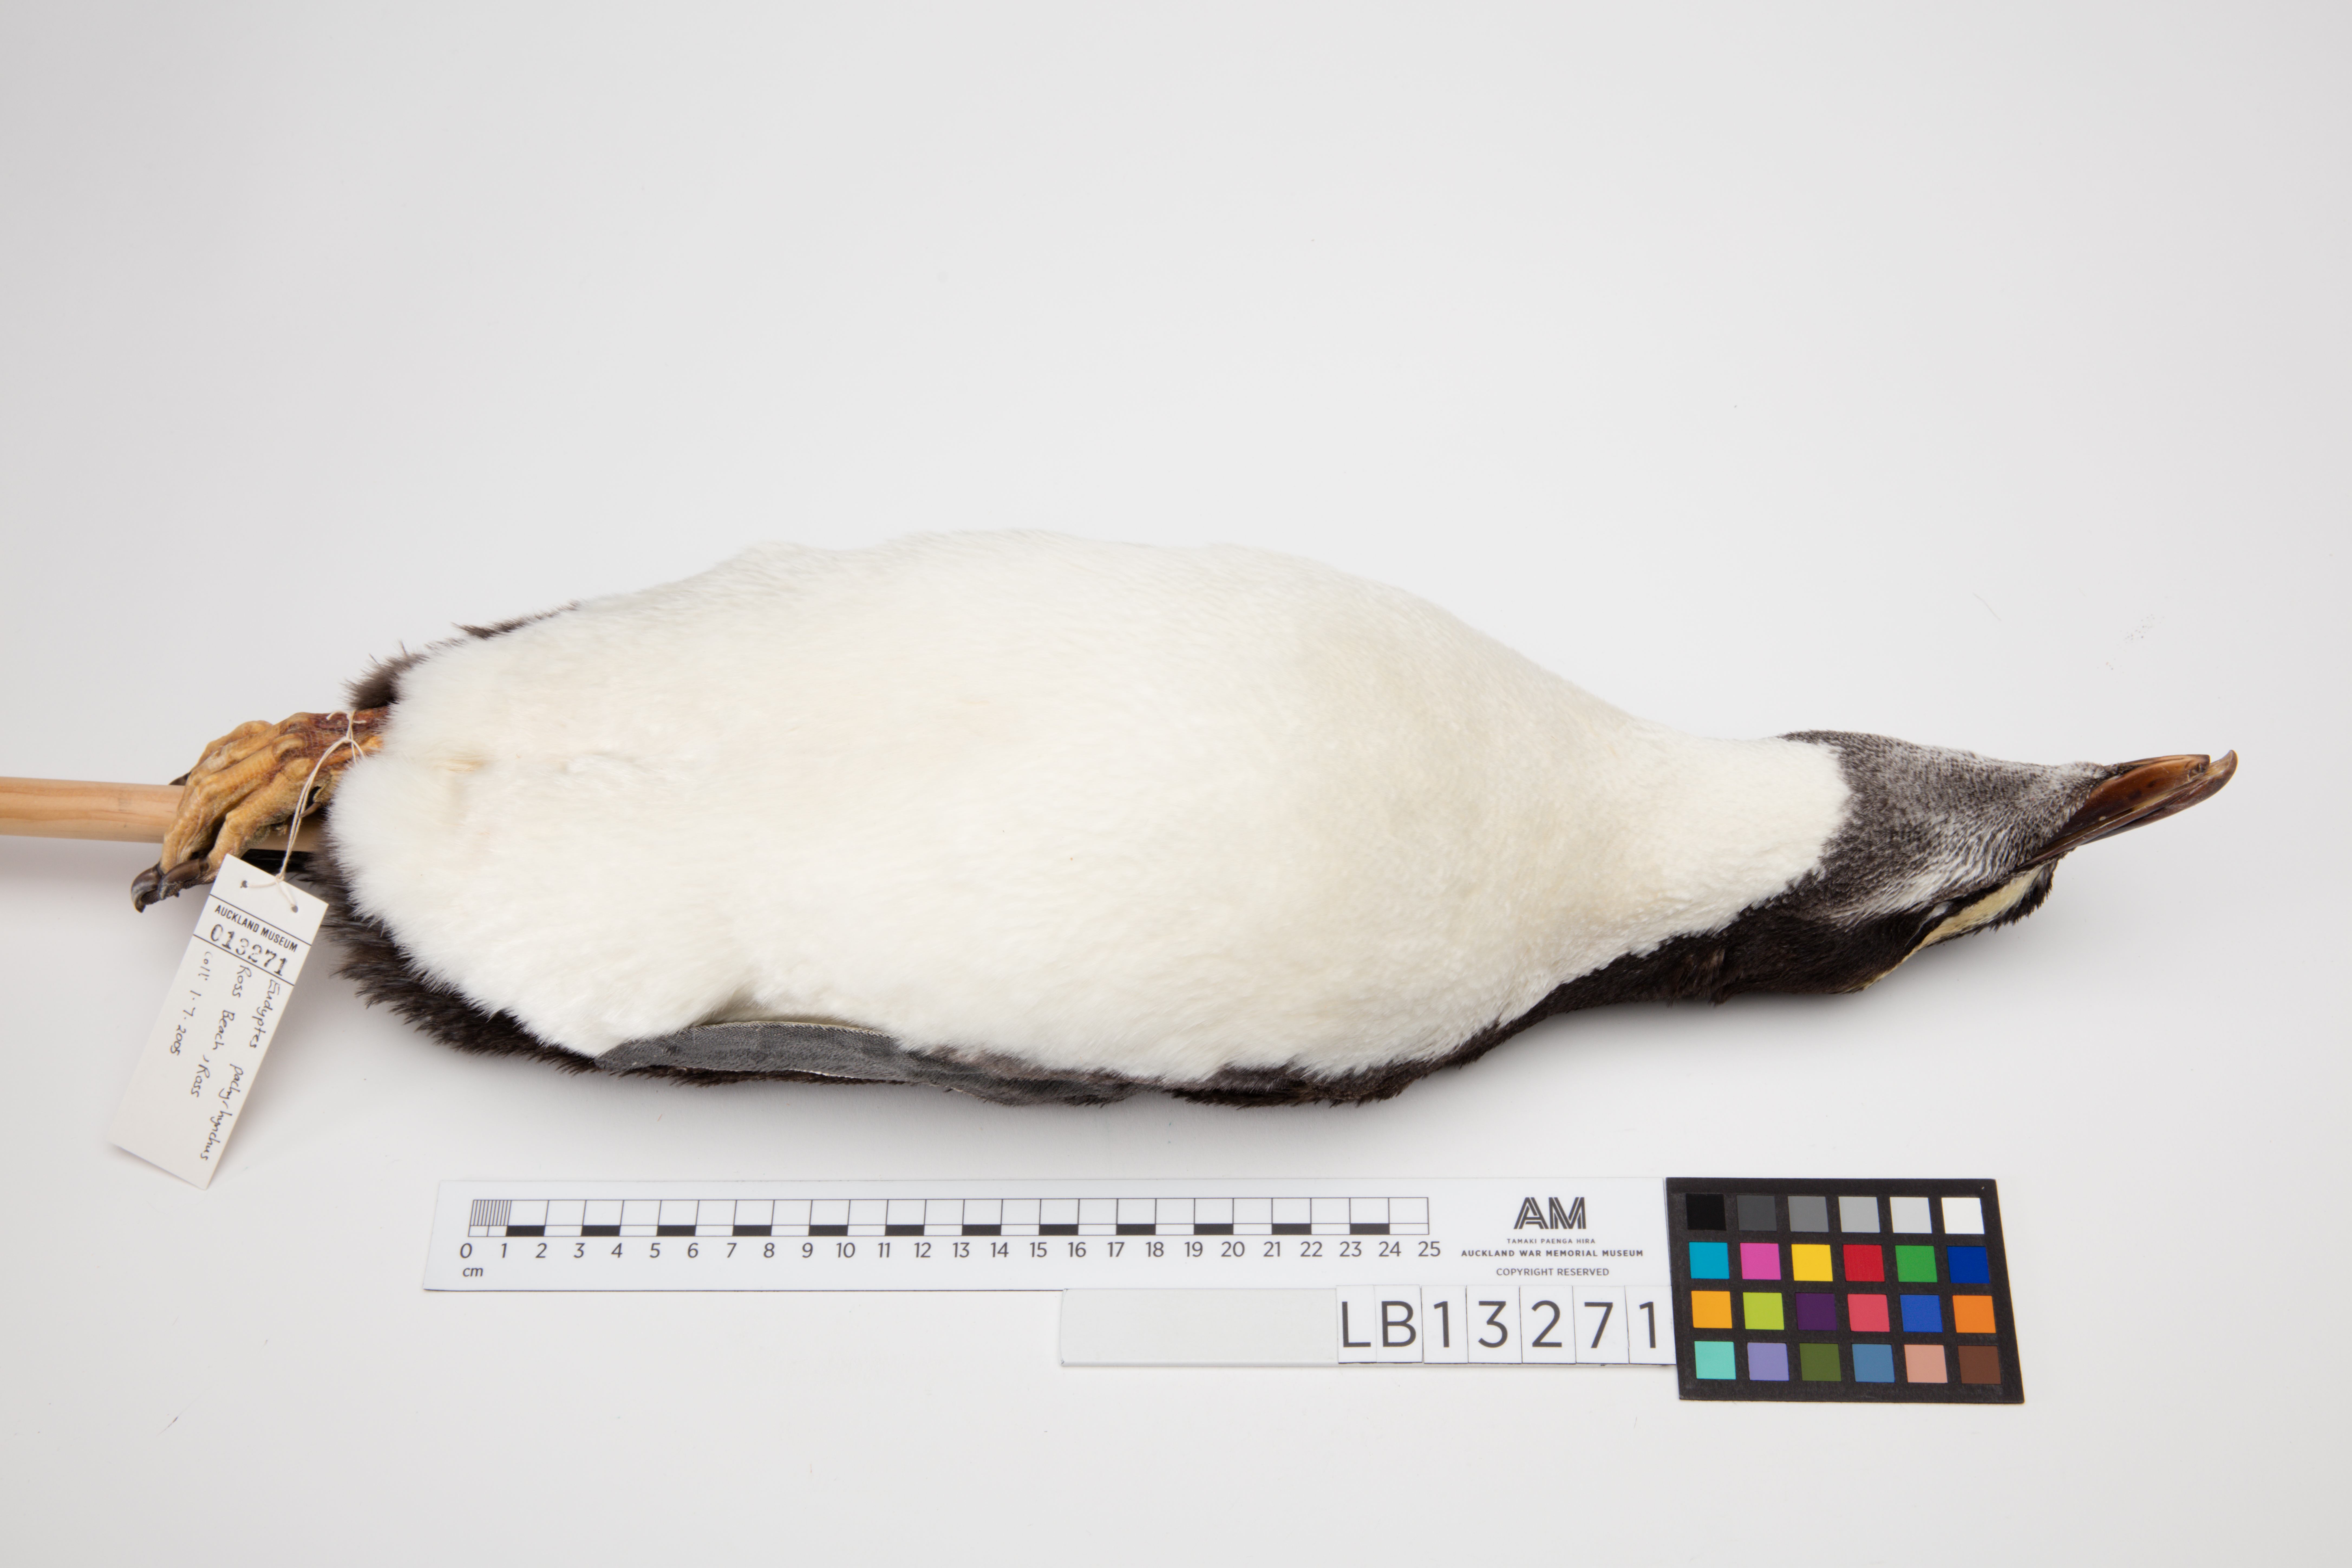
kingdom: Animalia
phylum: Chordata
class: Aves
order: Sphenisciformes
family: Spheniscidae
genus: Eudyptes
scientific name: Eudyptes pachyrhynchus
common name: Fiordland penguin
